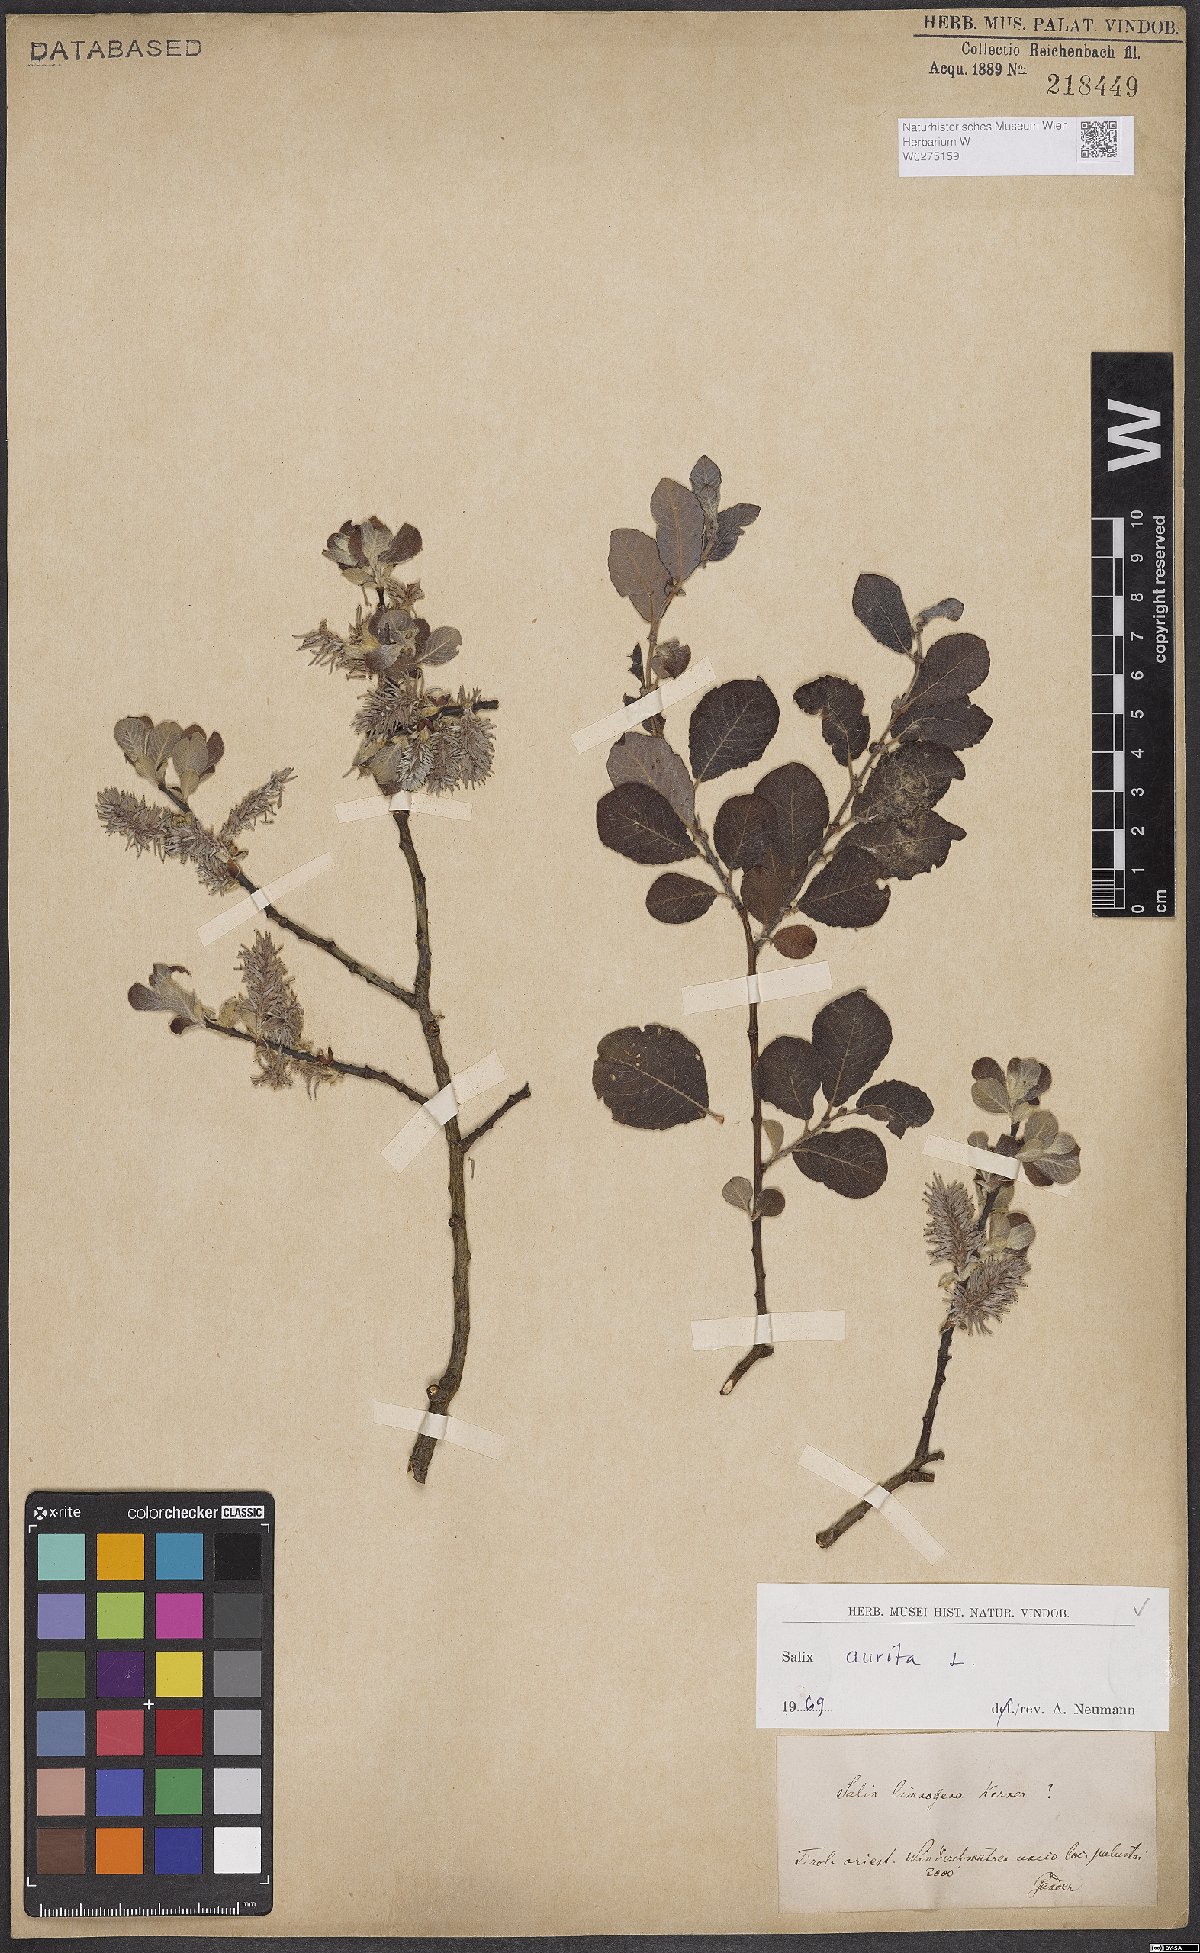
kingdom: Plantae
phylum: Tracheophyta
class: Magnoliopsida
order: Malpighiales
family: Salicaceae
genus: Salix
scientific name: Salix aurita
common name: Eared willow
